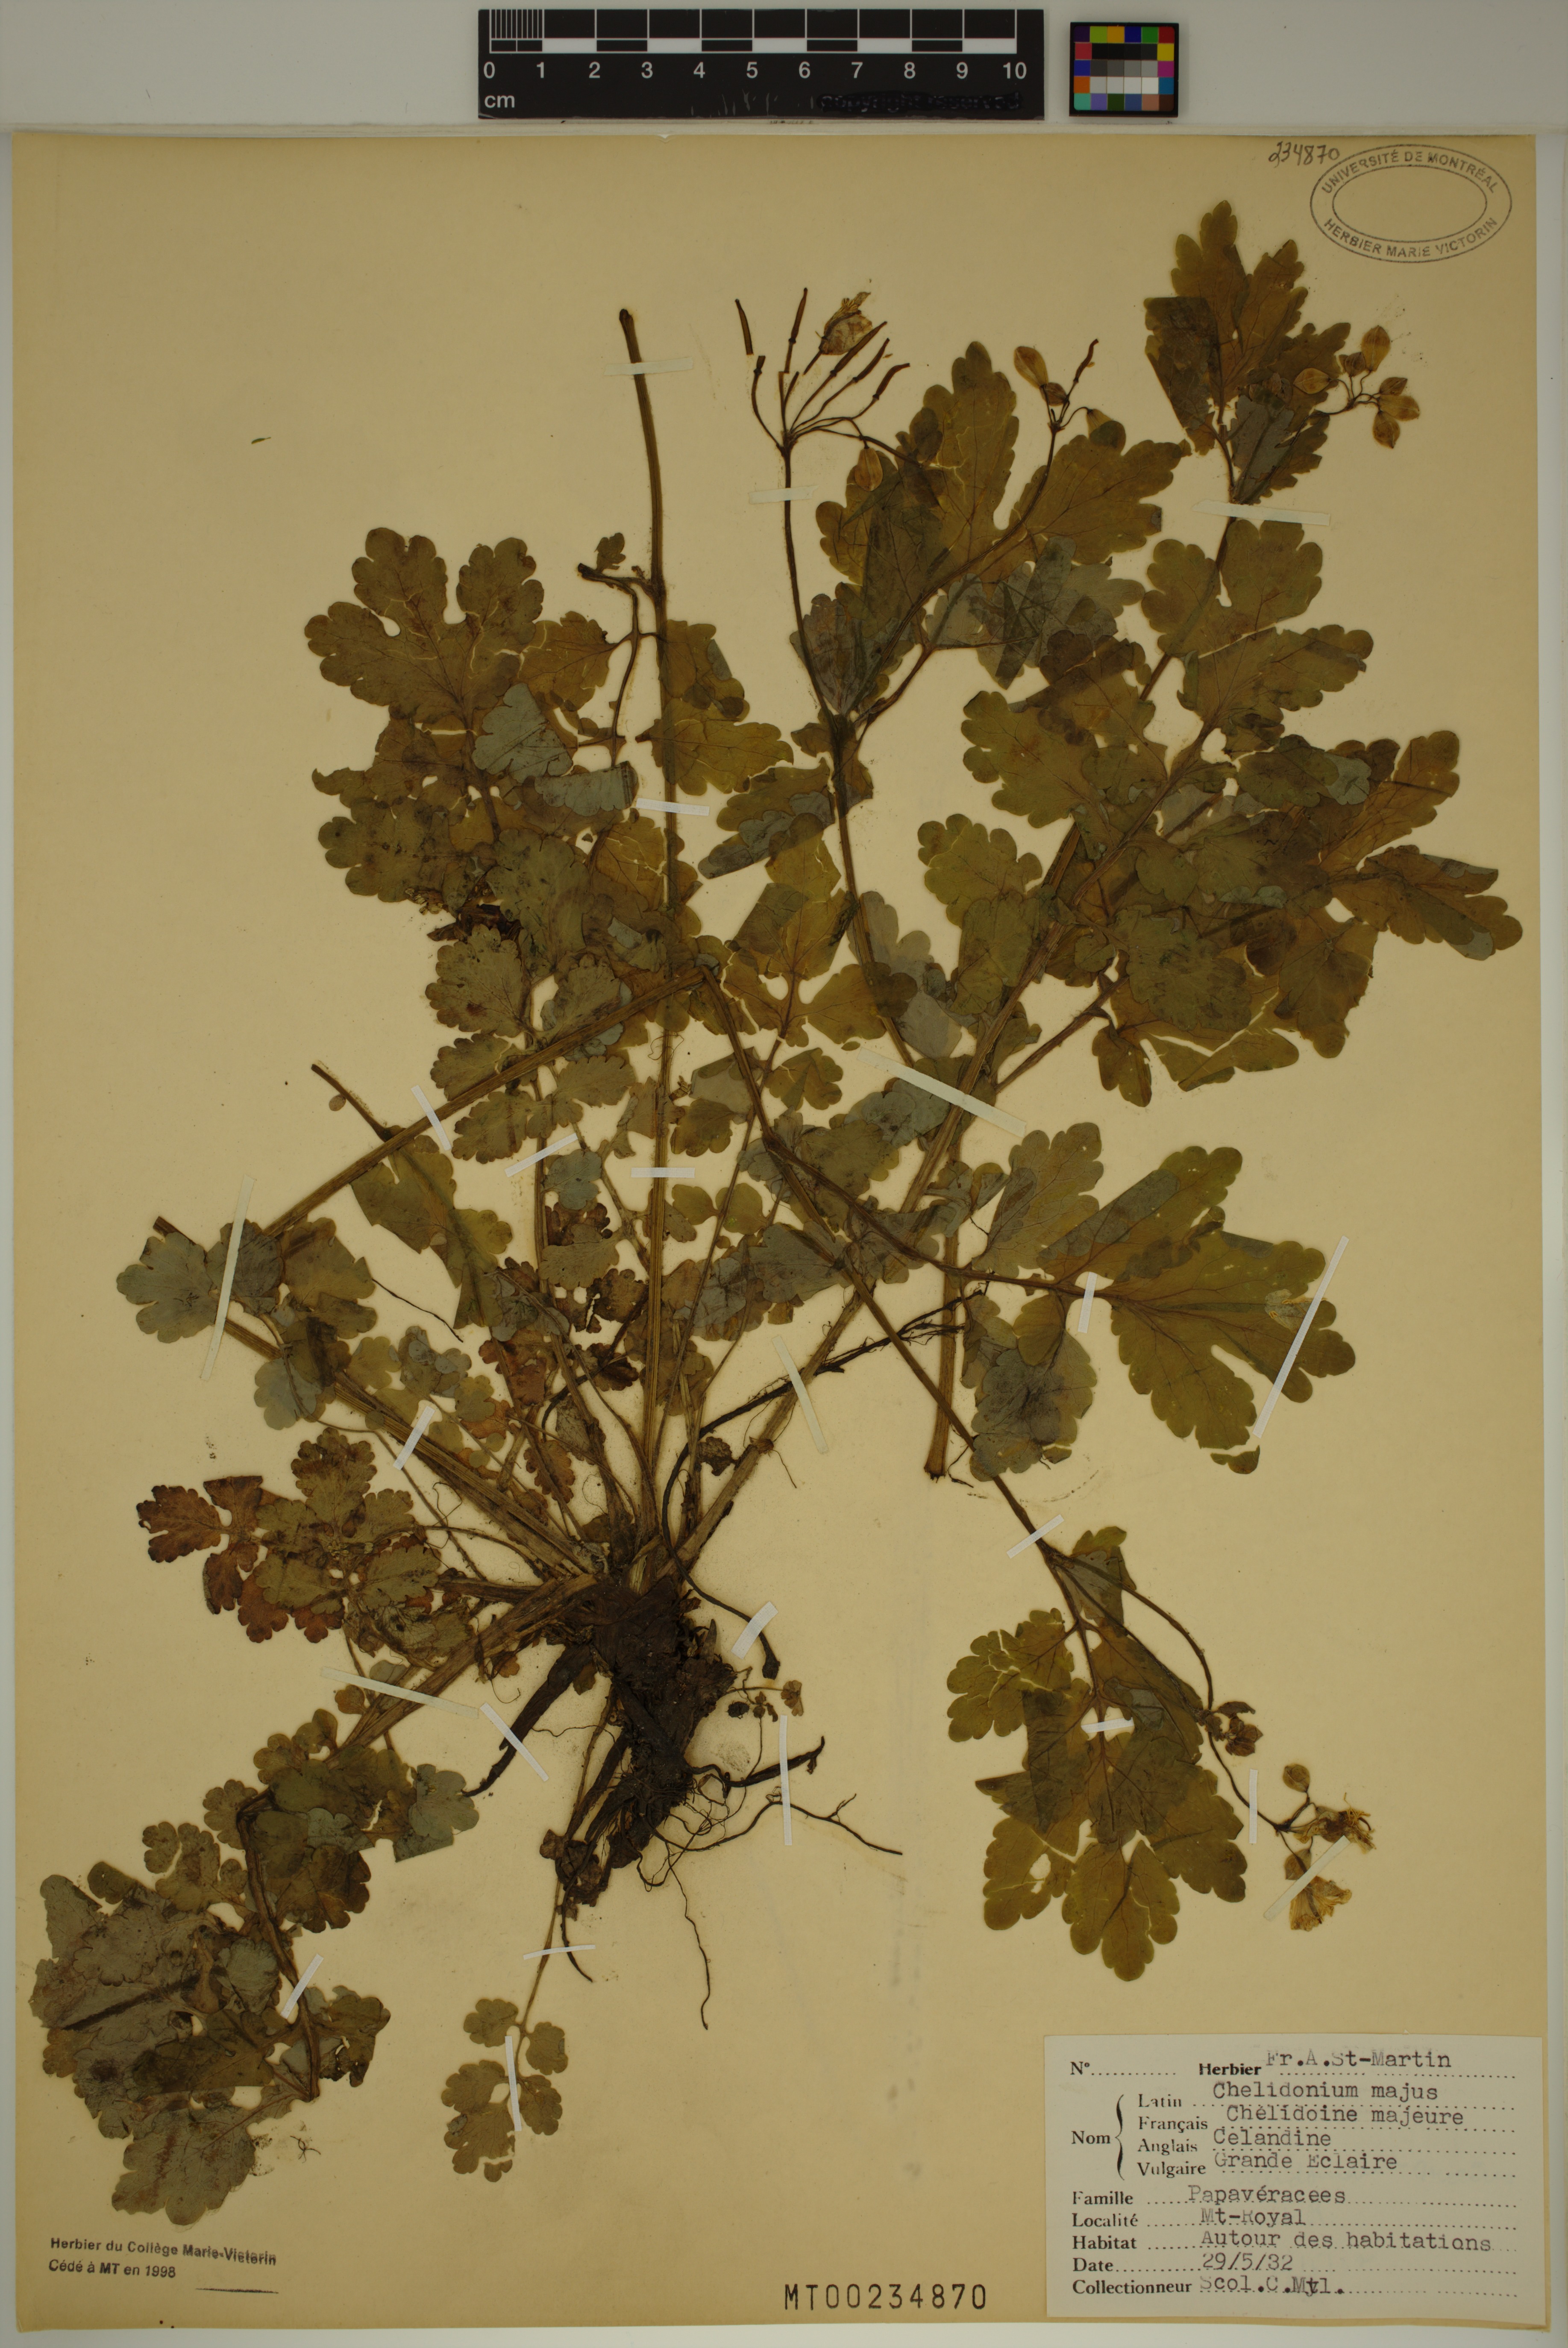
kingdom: Plantae
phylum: Tracheophyta
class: Magnoliopsida
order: Ranunculales
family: Papaveraceae
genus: Chelidonium
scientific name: Chelidonium majus
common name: Greater celandine
